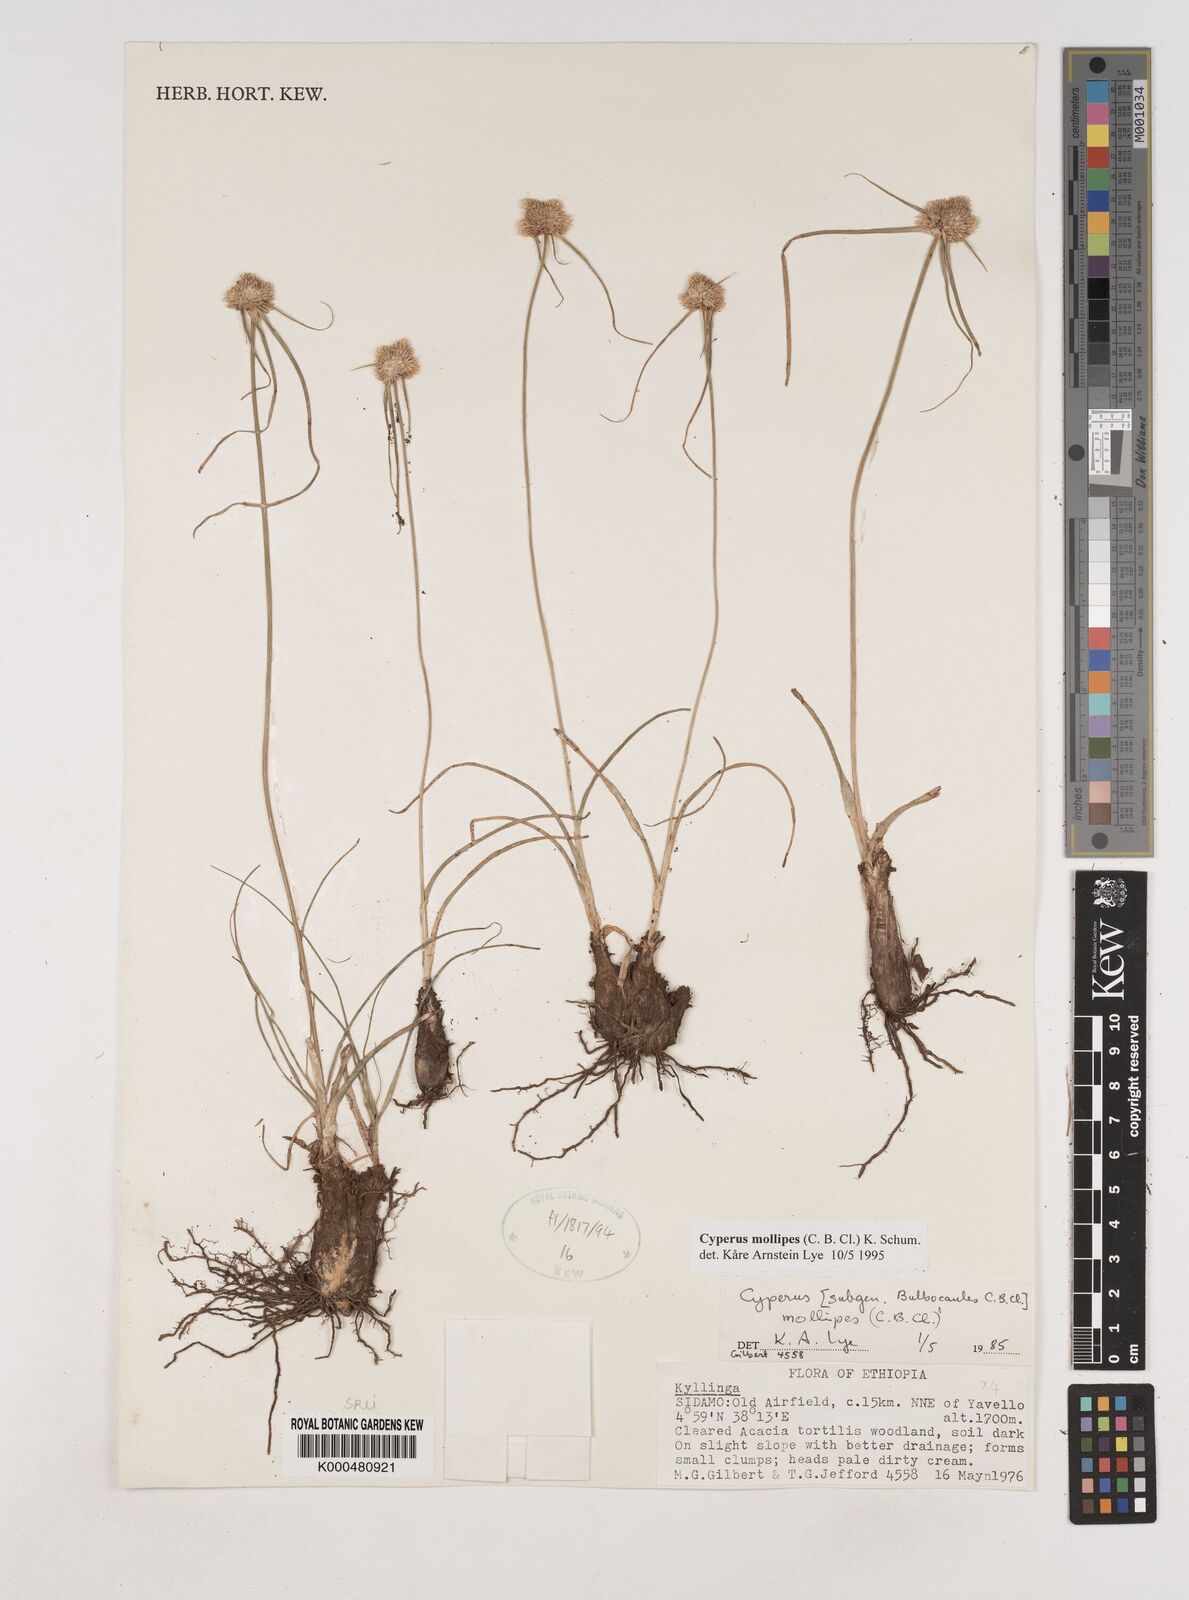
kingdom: Plantae
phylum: Tracheophyta
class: Liliopsida
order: Poales
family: Cyperaceae
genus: Cyperus
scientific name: Cyperus mollipes
